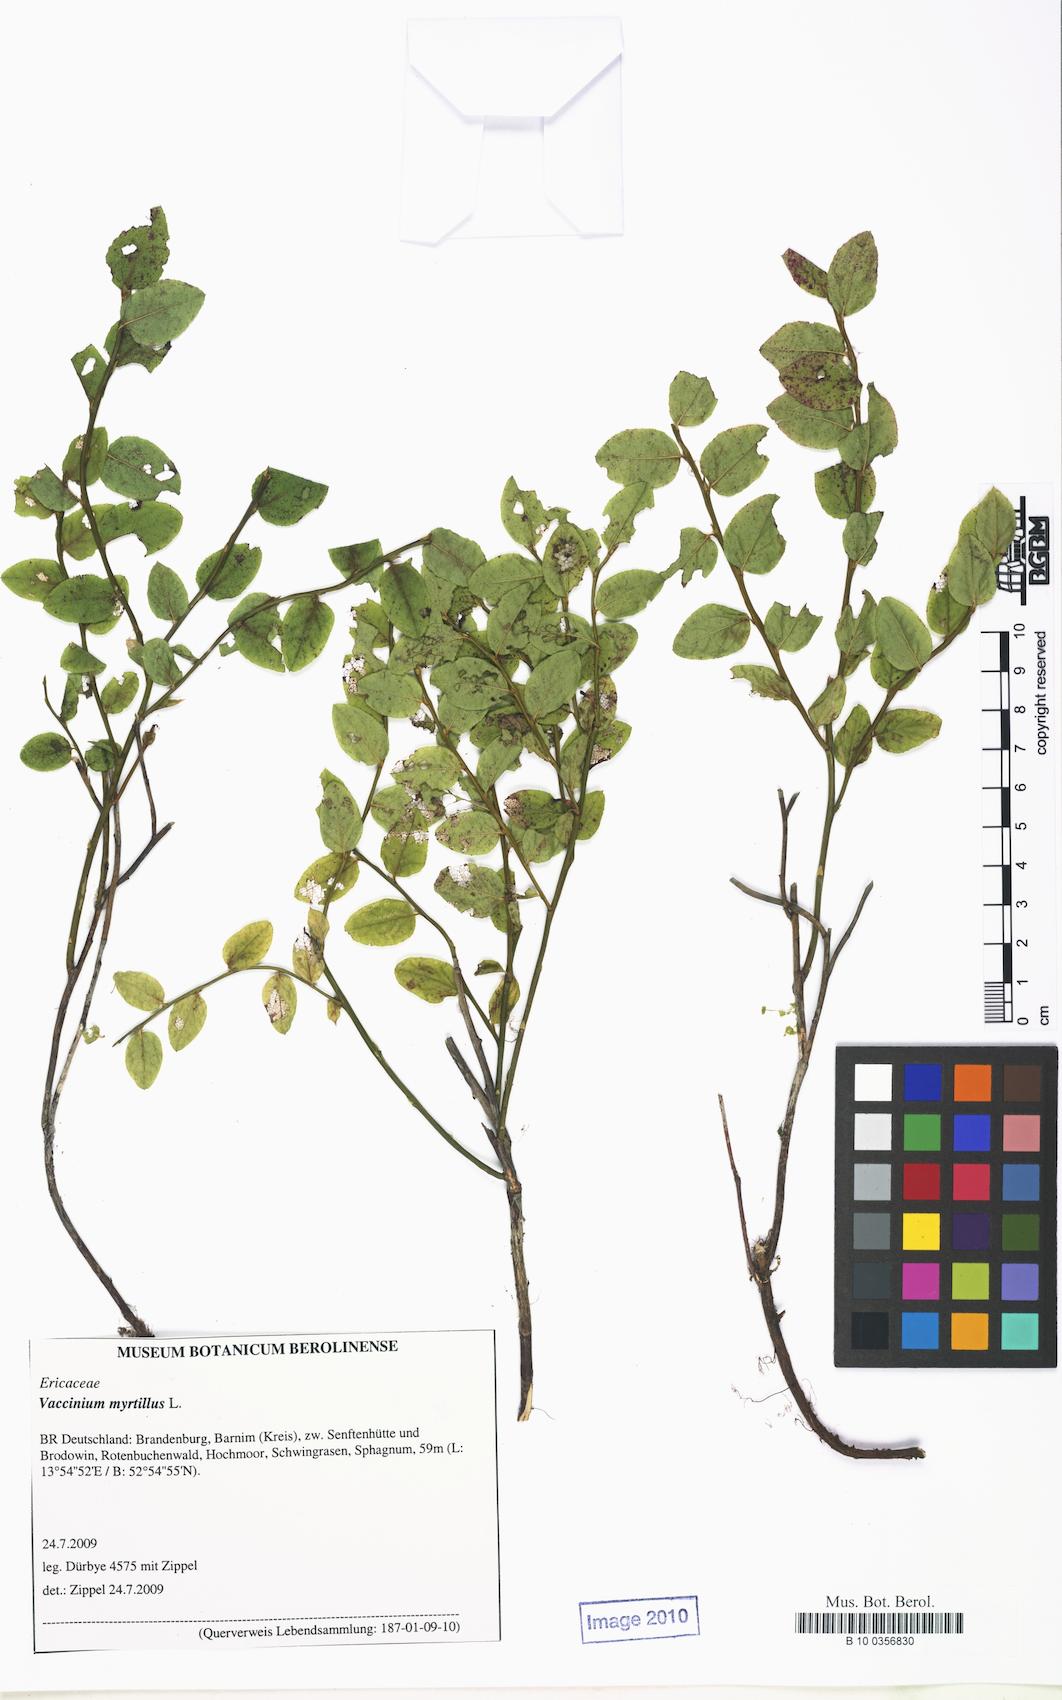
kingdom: Plantae
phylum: Tracheophyta
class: Magnoliopsida
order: Ericales
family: Ericaceae
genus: Vaccinium
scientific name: Vaccinium myrtillus
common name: Bilberry
